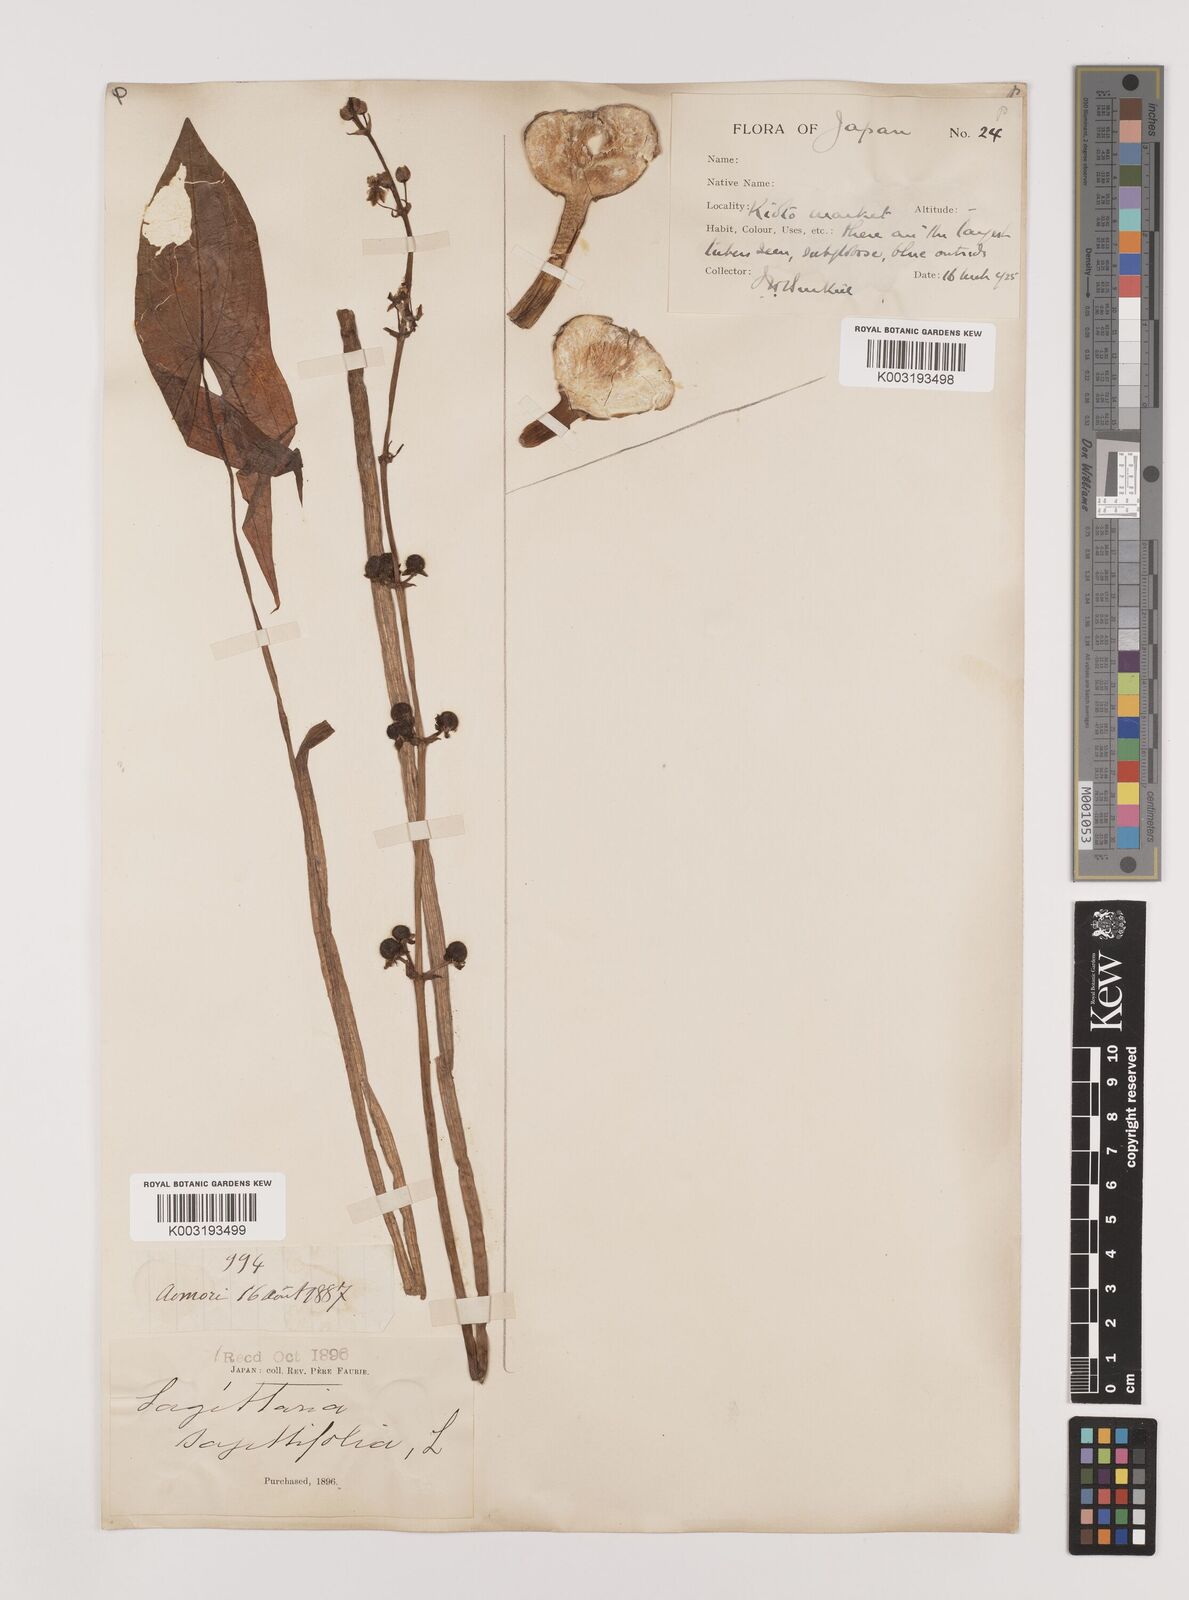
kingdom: Plantae
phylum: Tracheophyta
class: Liliopsida
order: Alismatales
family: Alismataceae
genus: Sagittaria
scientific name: Sagittaria sagittifolia
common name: Arrowhead
